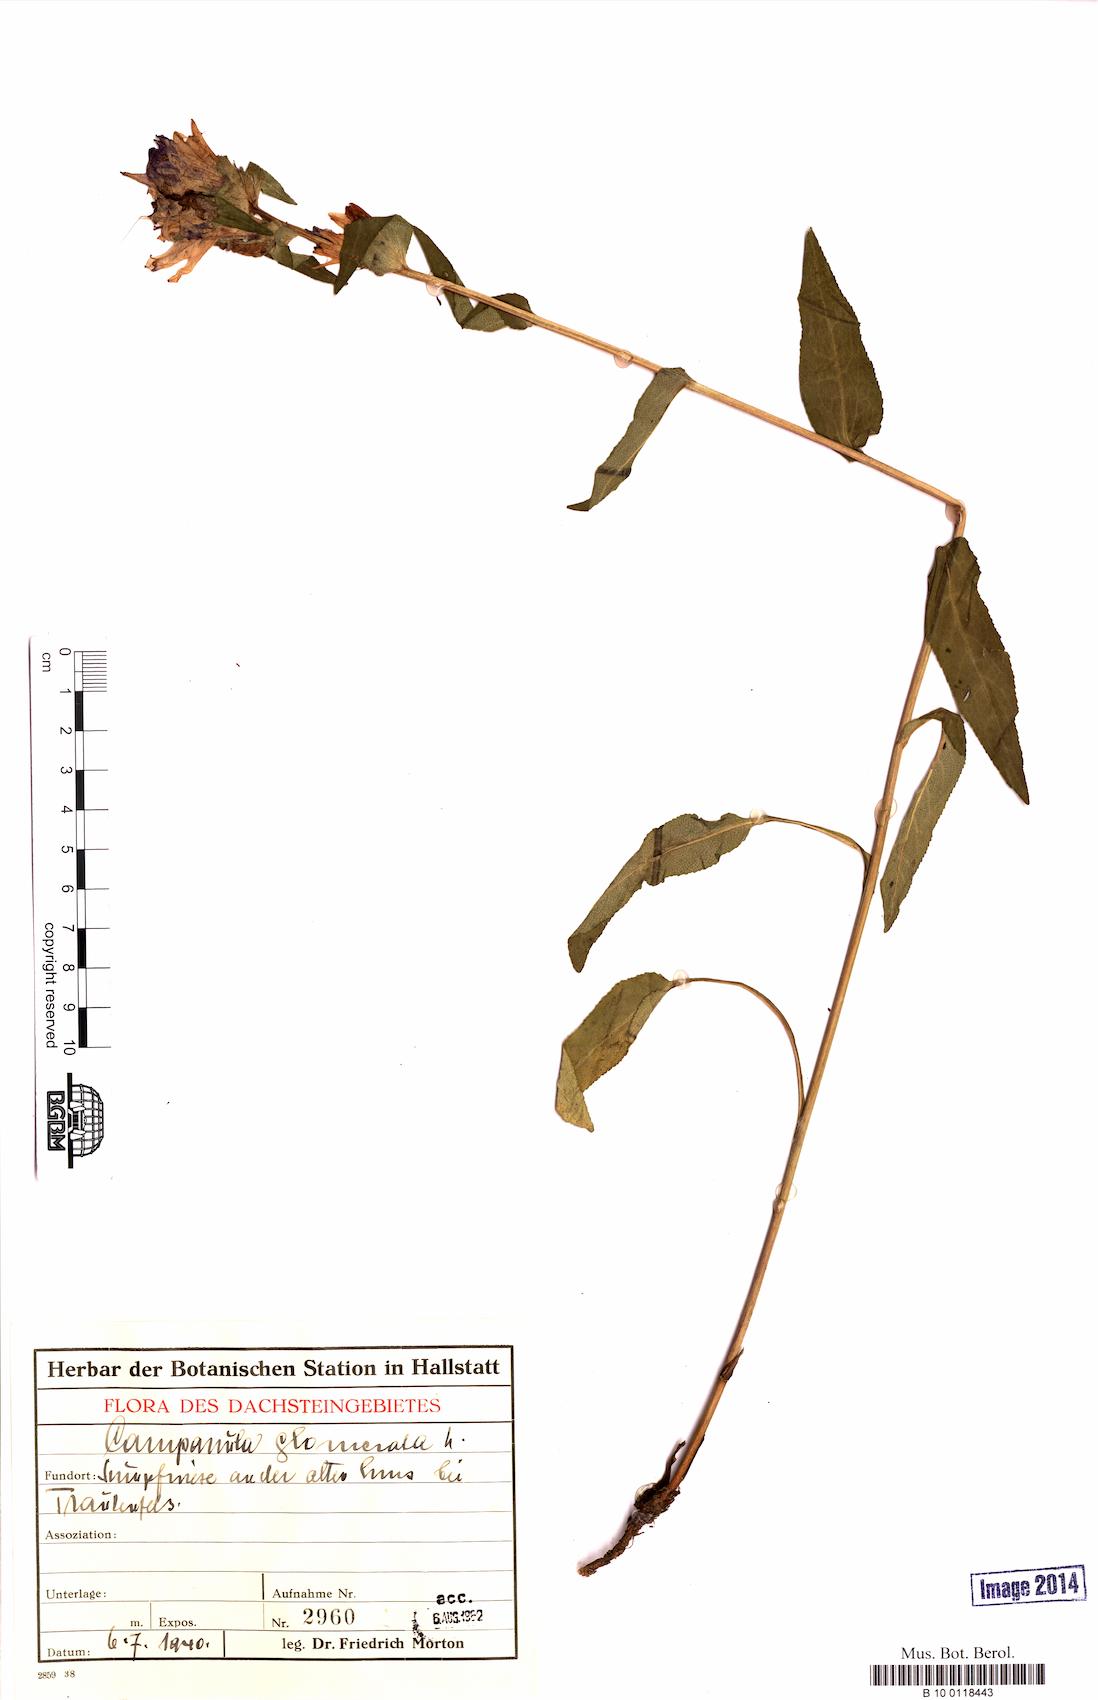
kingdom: Plantae
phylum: Tracheophyta
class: Magnoliopsida
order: Asterales
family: Campanulaceae
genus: Campanula
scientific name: Campanula glomerata
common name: Clustered bellflower
